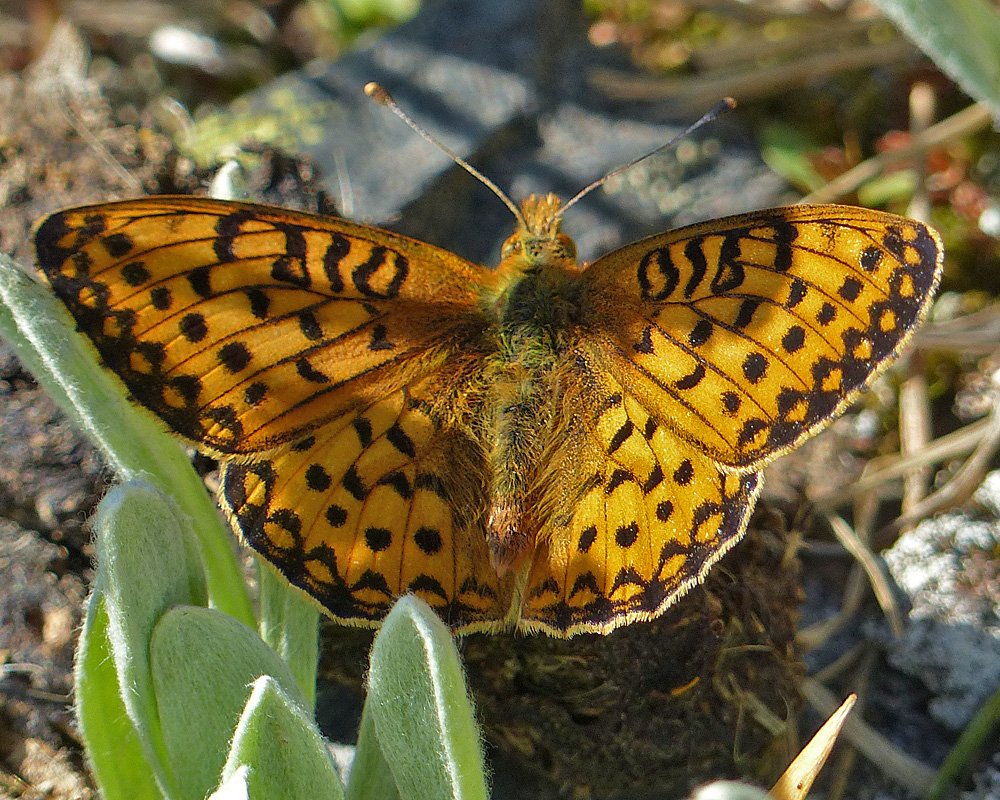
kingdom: Animalia
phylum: Arthropoda
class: Insecta
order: Lepidoptera
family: Nymphalidae
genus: Speyeria
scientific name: Speyeria mormonia
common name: Mormon Fritillary
